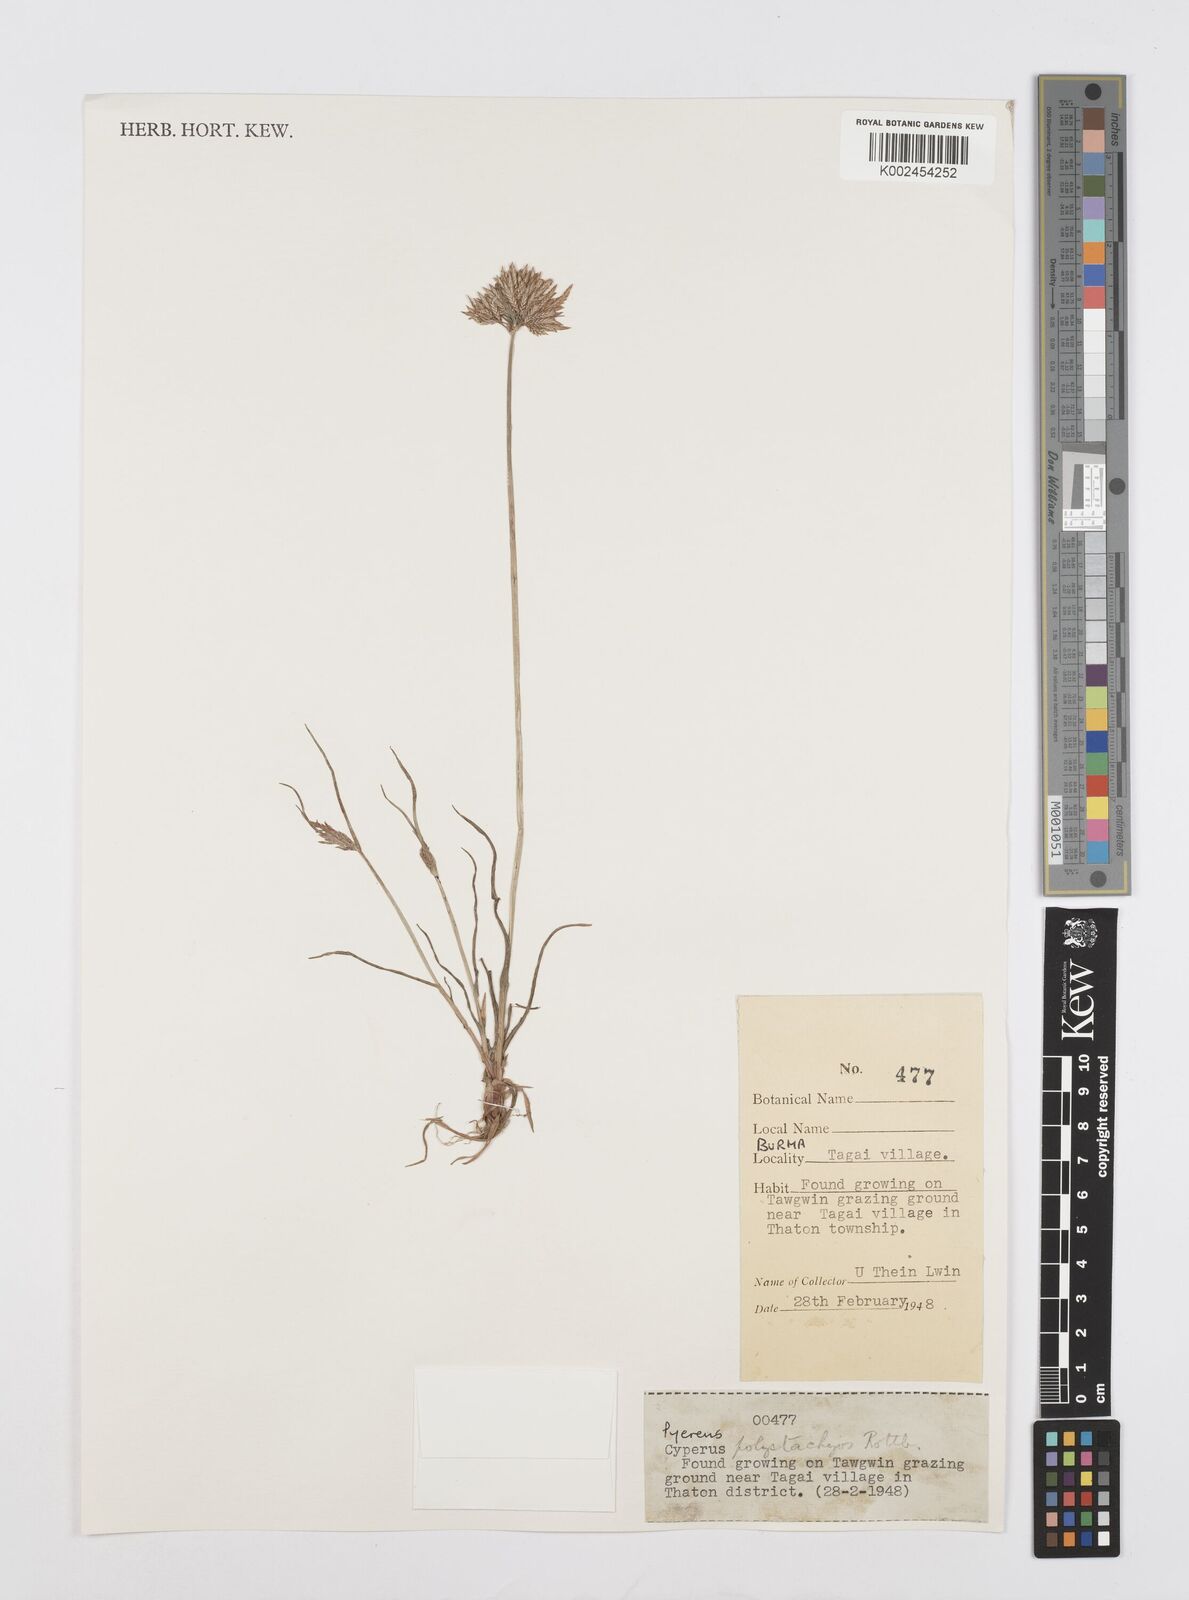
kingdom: Plantae
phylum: Tracheophyta
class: Liliopsida
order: Poales
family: Cyperaceae
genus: Cyperus
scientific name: Cyperus polystachyos
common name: Bunchy flat sedge
